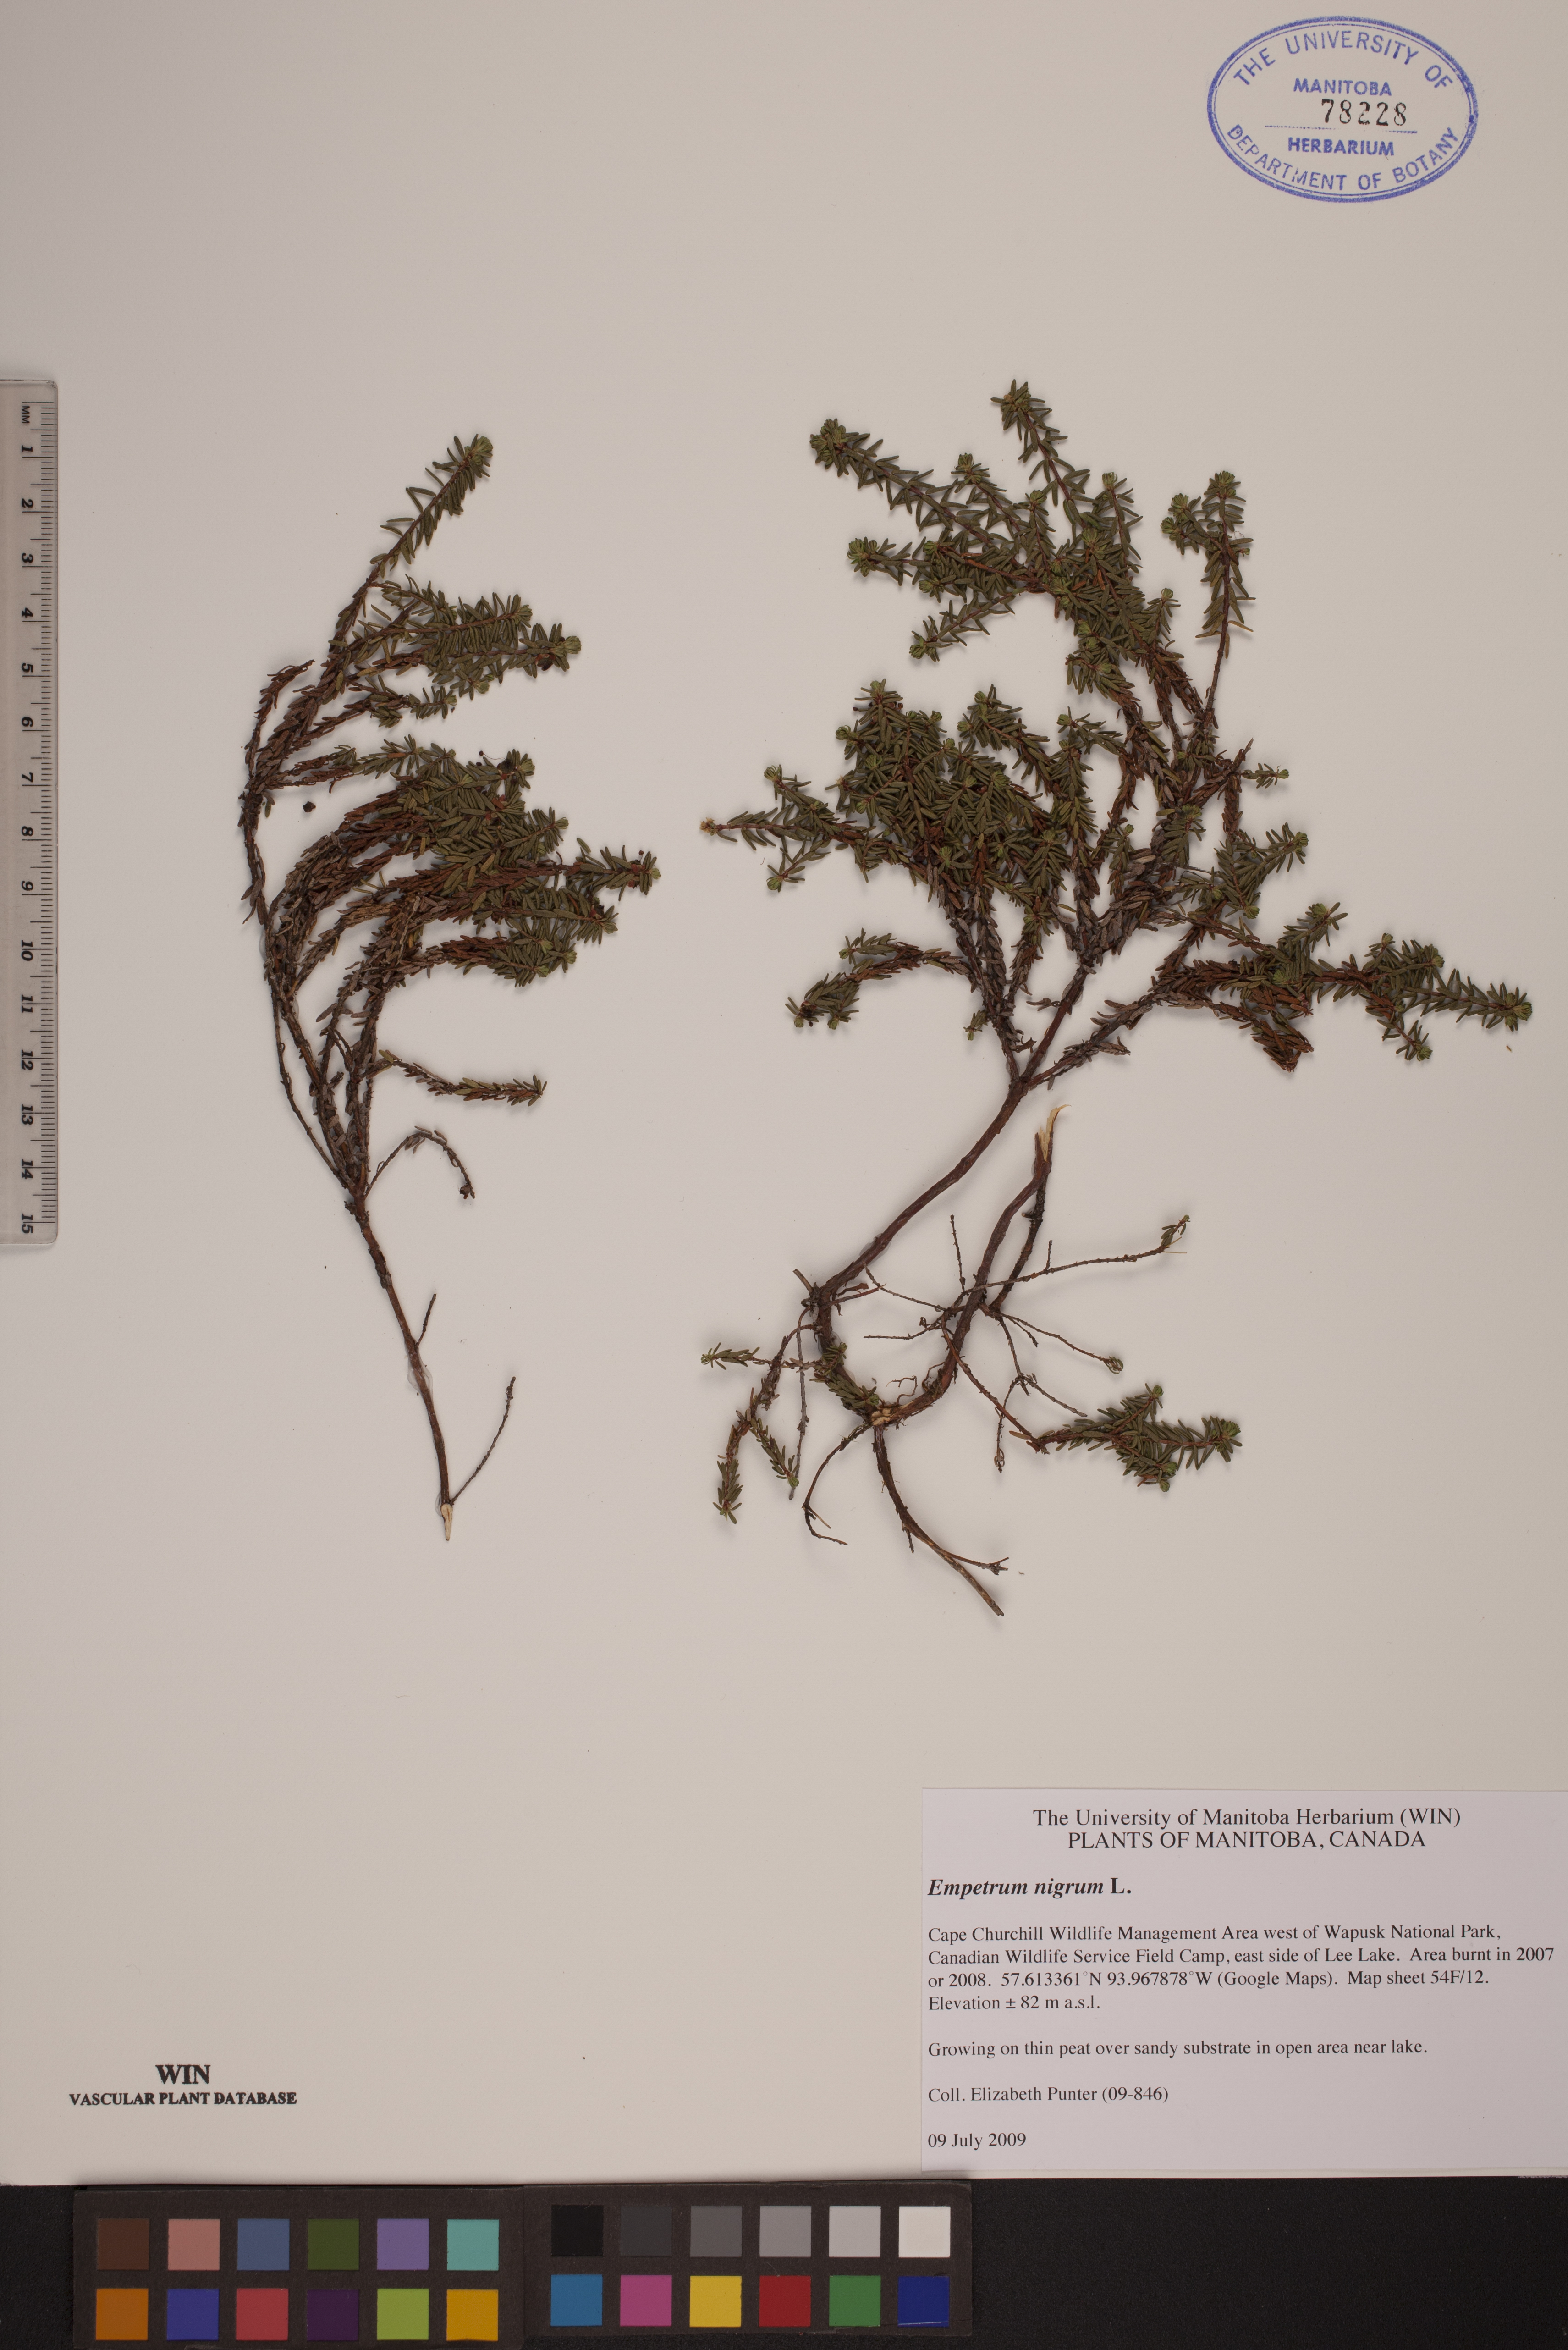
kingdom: Plantae
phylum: Tracheophyta
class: Magnoliopsida
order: Ericales
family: Ericaceae
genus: Empetrum
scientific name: Empetrum nigrum
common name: Black crowberry
